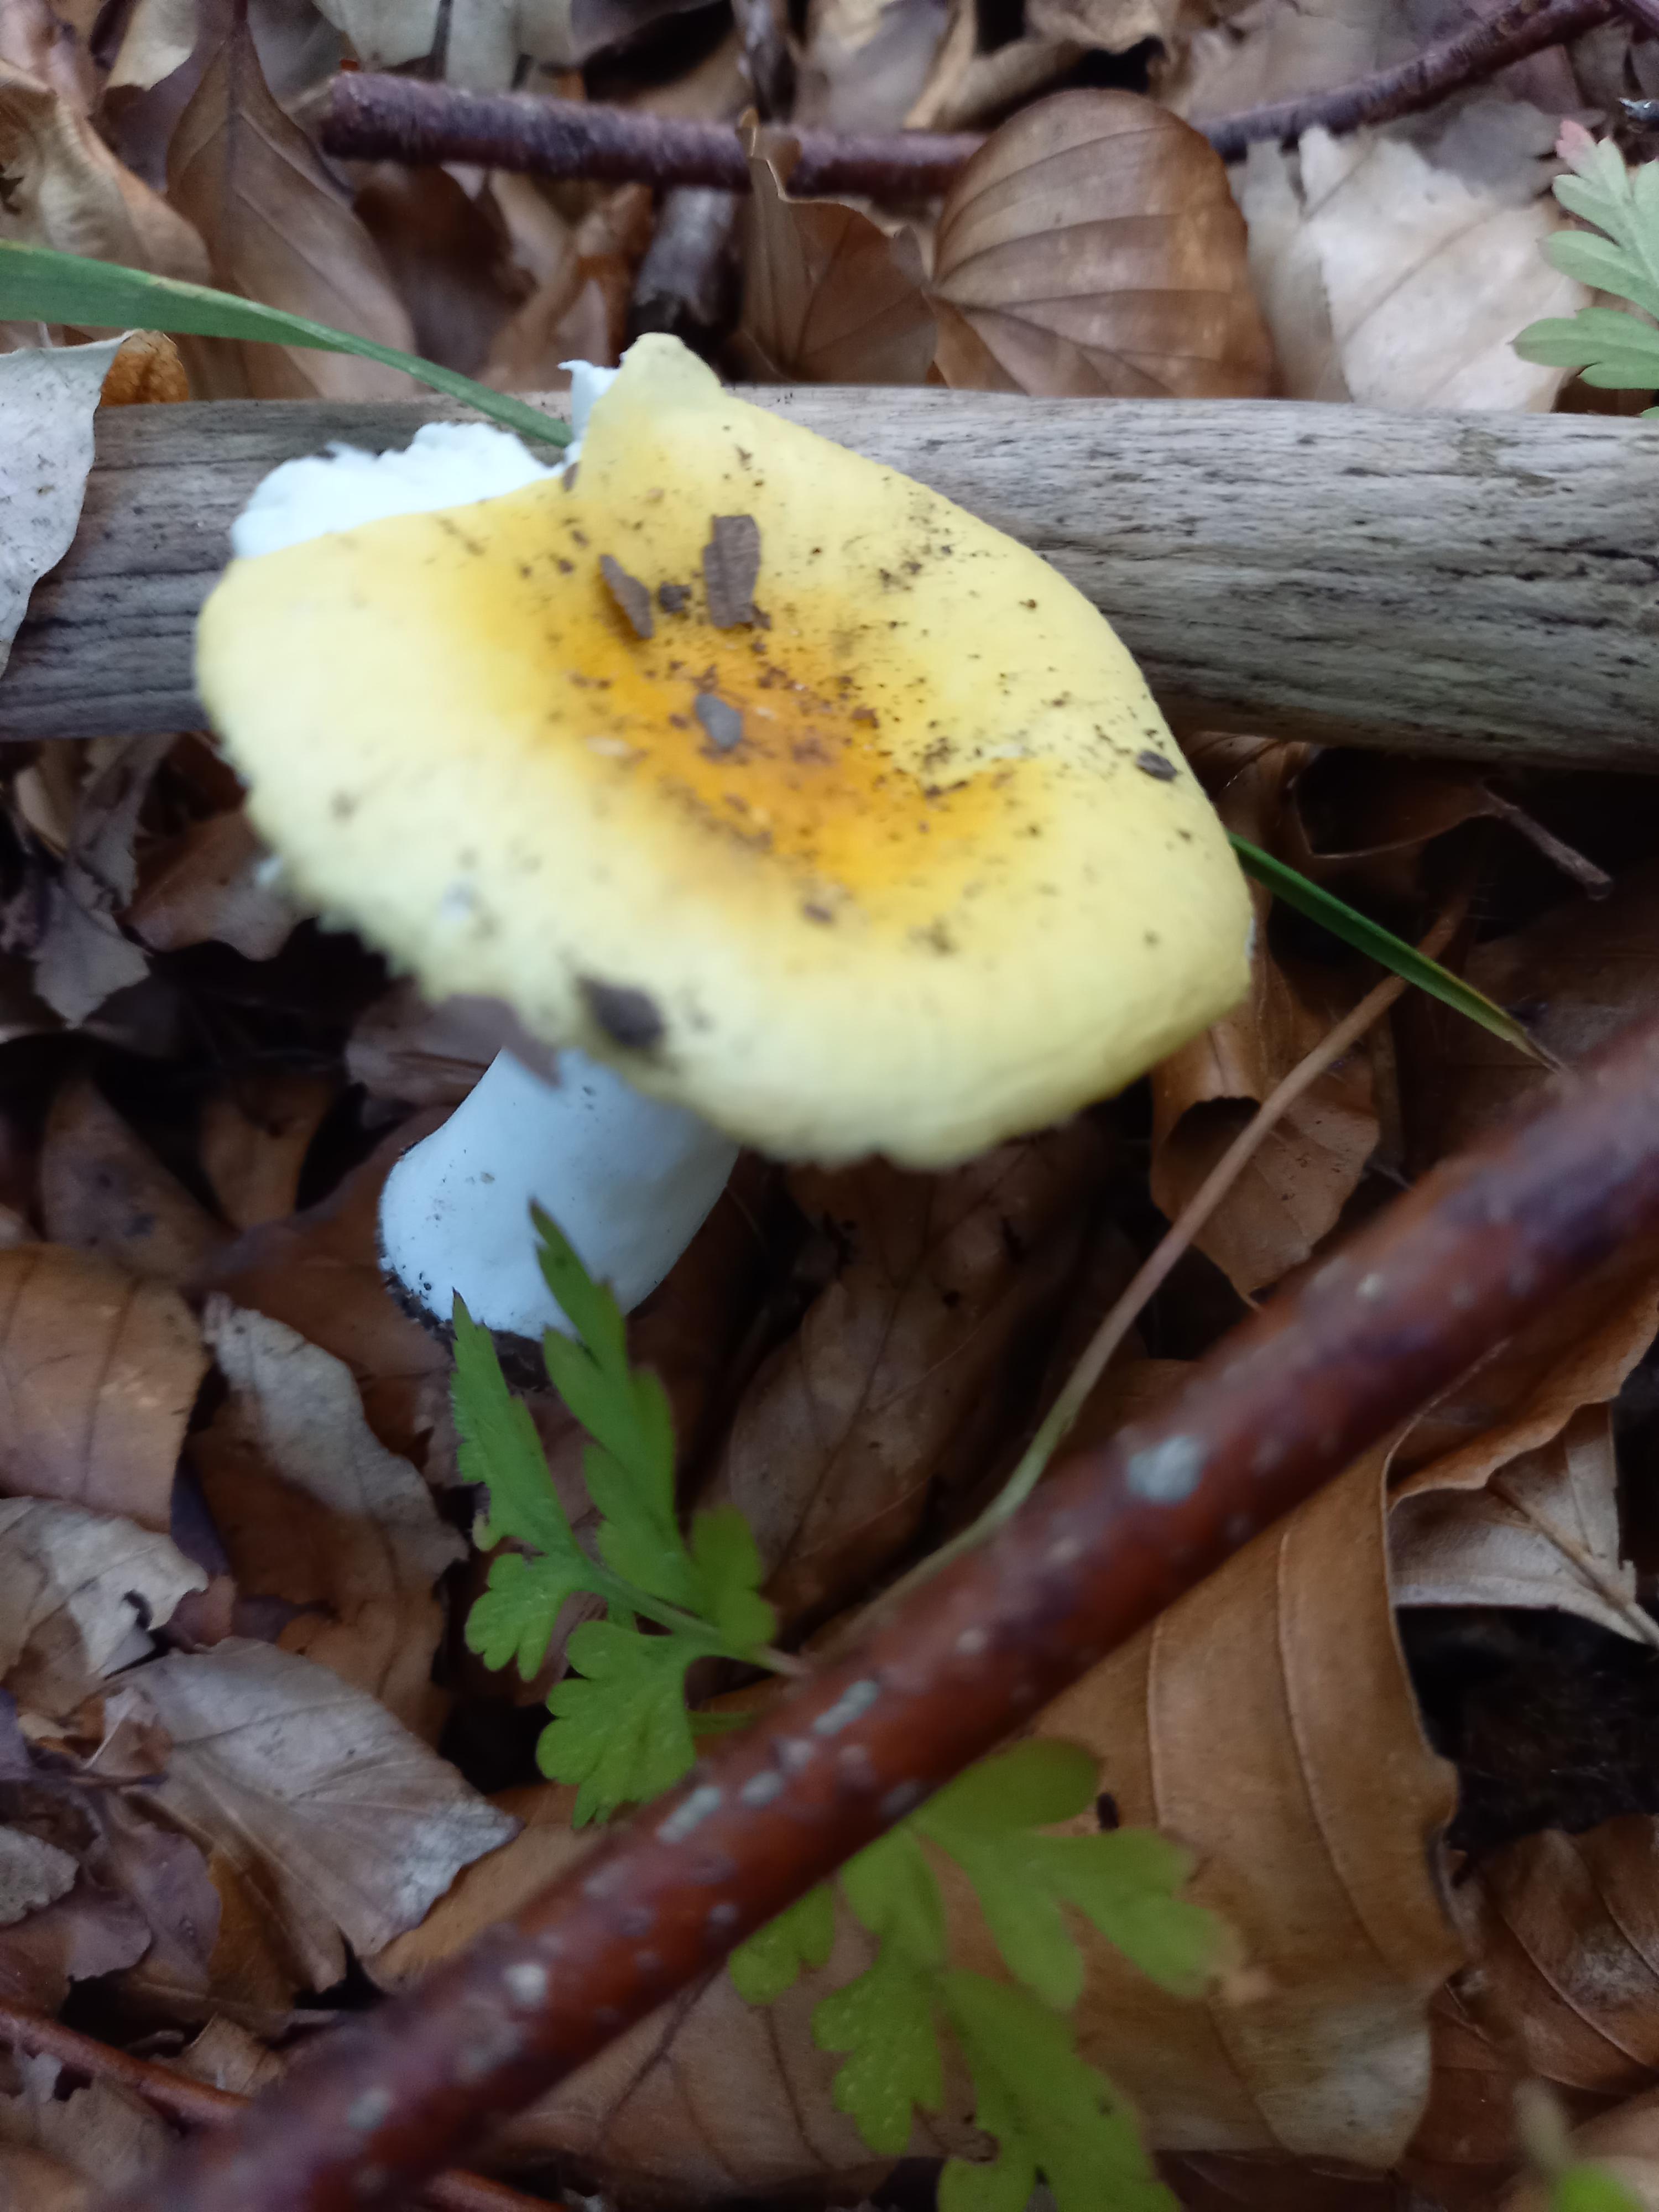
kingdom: Fungi
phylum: Basidiomycota
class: Agaricomycetes
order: Russulales
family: Russulaceae
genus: Russula
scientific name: Russula solaris
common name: sol-skørhat
